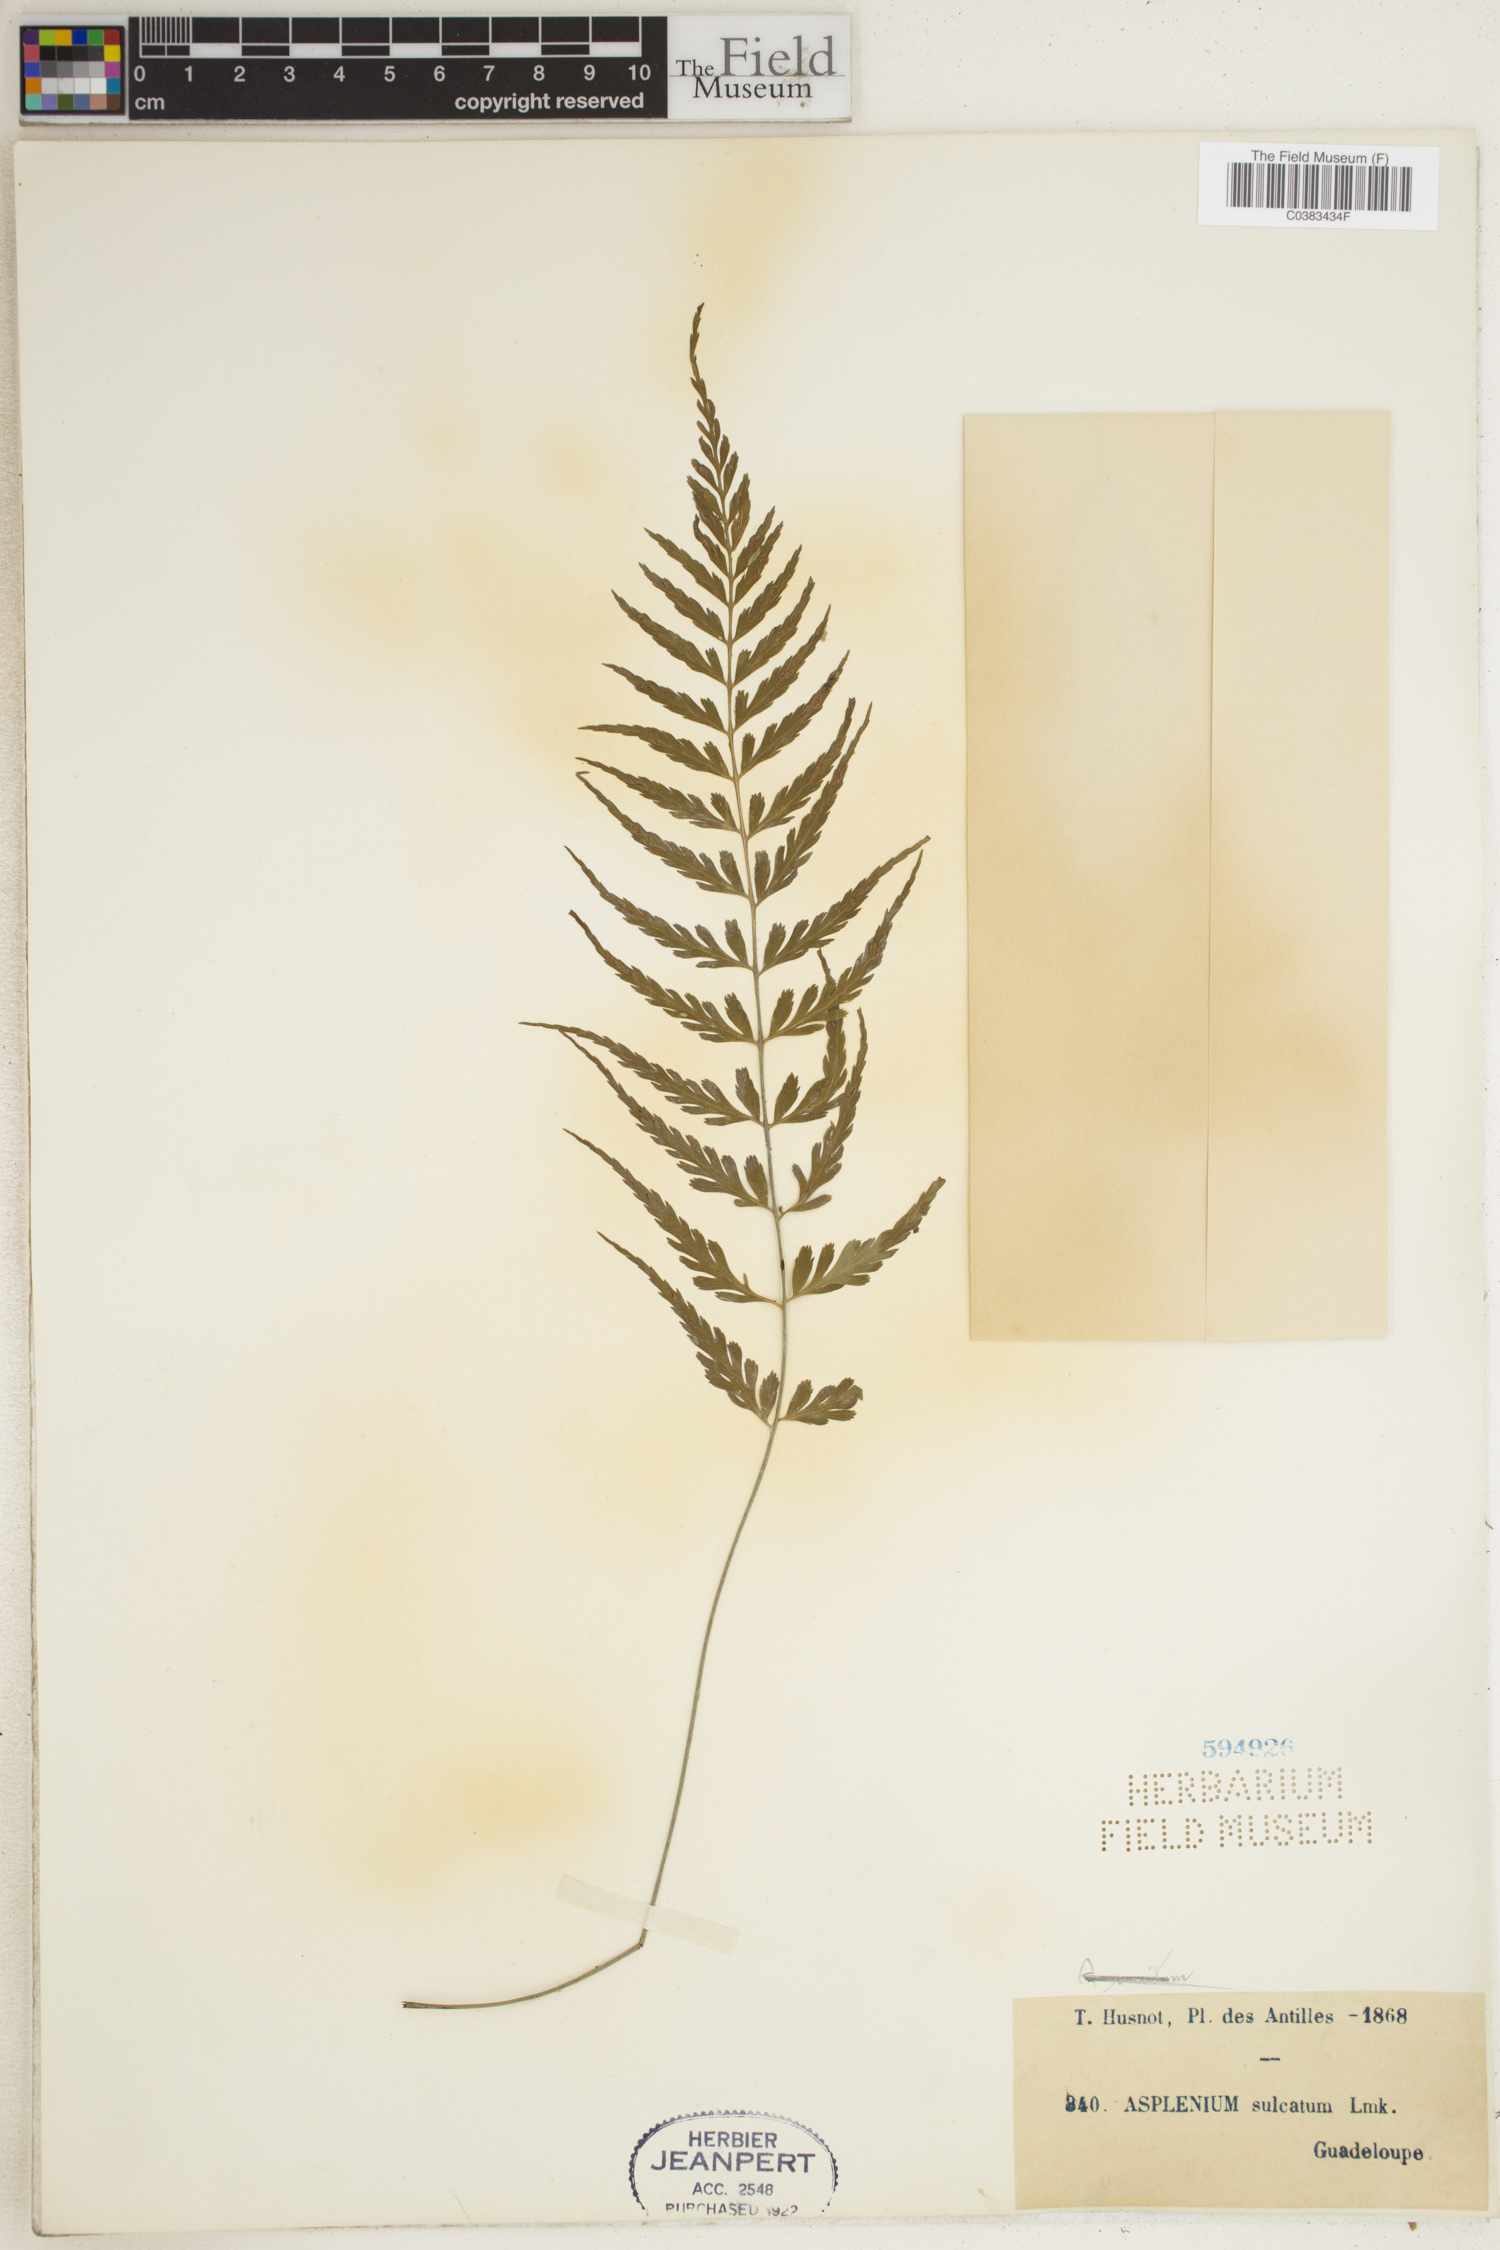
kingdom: Plantae
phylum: Tracheophyta
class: Polypodiopsida
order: Polypodiales
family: Aspleniaceae
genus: Asplenium
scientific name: Asplenium sulcatum
